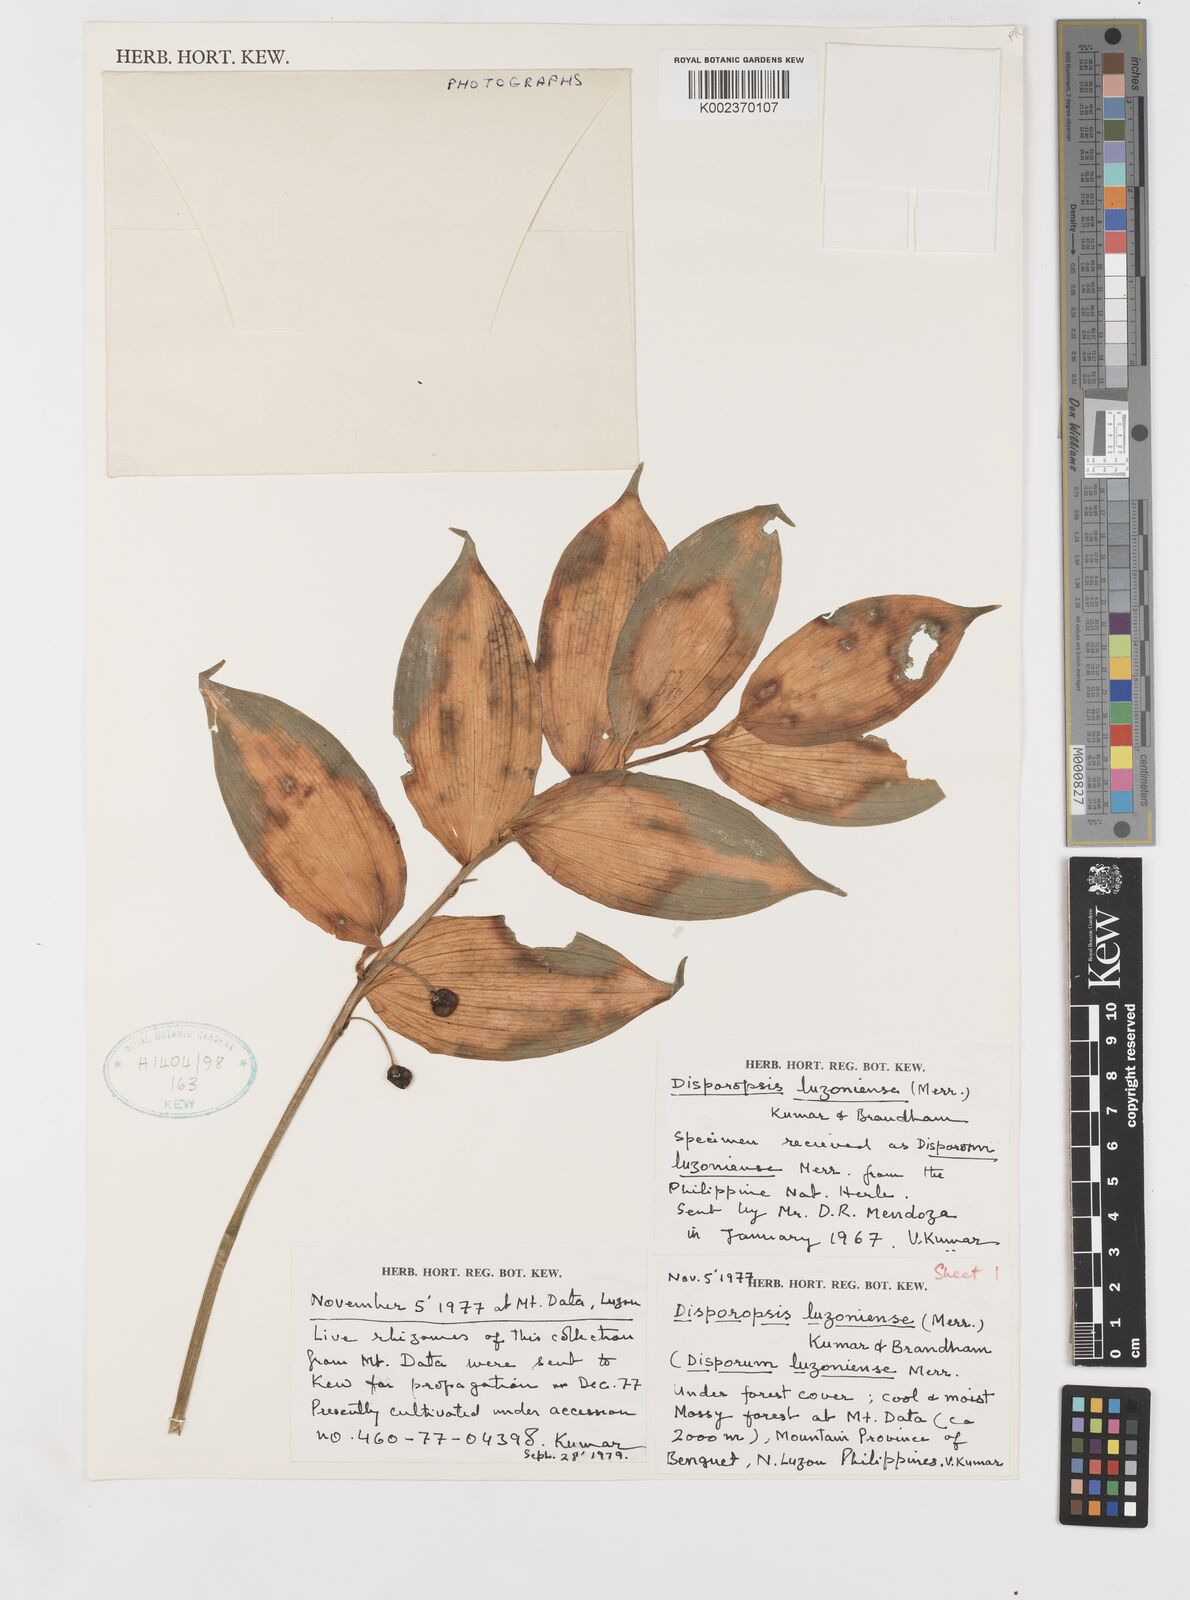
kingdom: Plantae
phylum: Tracheophyta
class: Liliopsida
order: Asparagales
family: Asparagaceae
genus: Disporopsis
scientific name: Disporopsis luzoniensis
